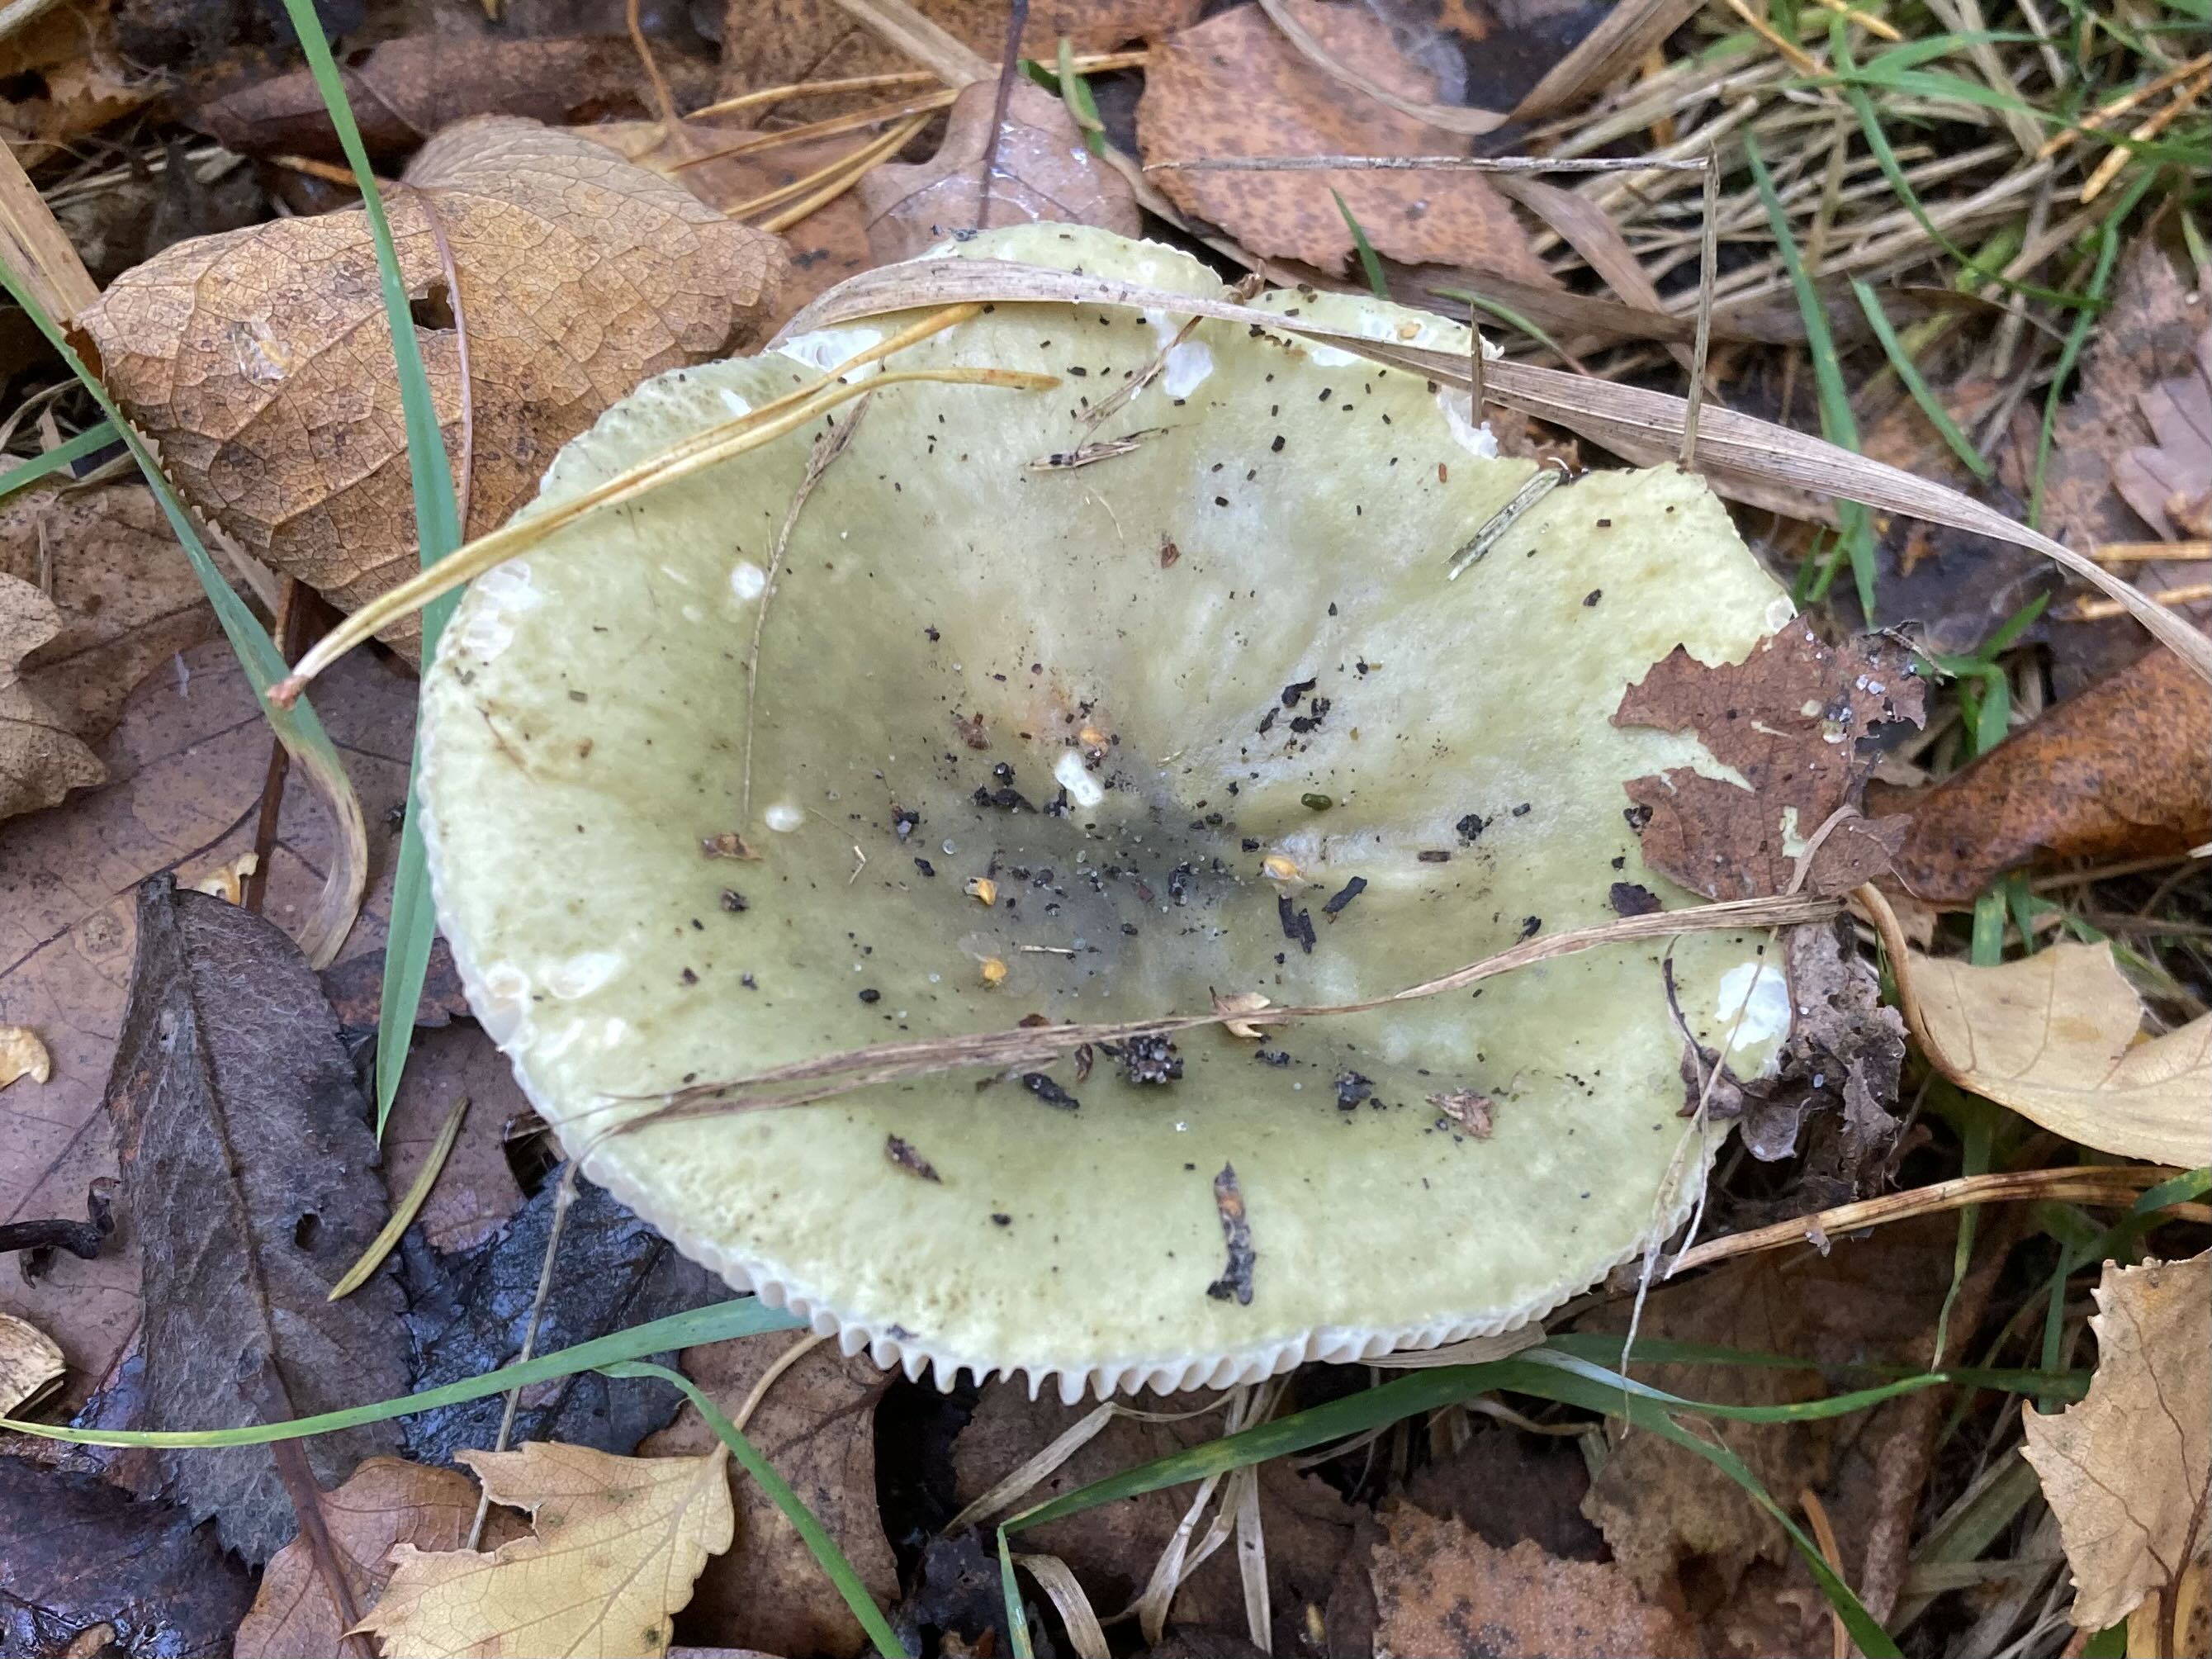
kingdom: Fungi
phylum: Basidiomycota
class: Agaricomycetes
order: Russulales
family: Russulaceae
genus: Russula
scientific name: Russula aeruginea
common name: græsgrøn skørhat
